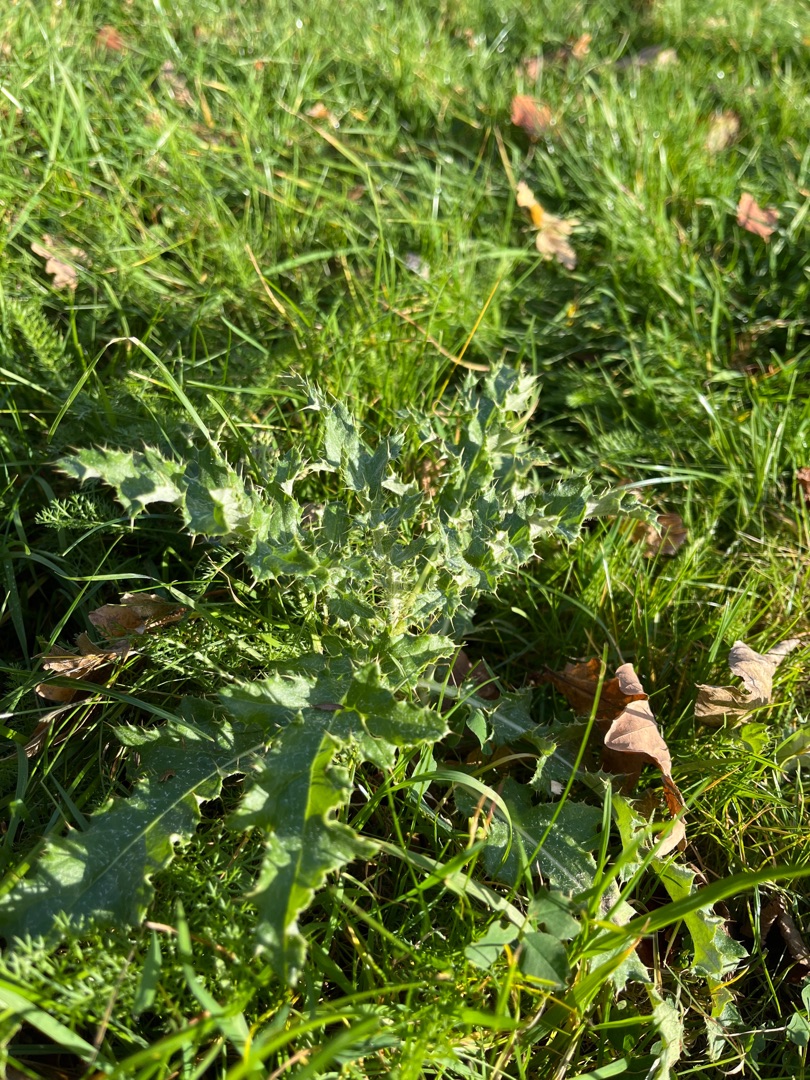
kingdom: Plantae
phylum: Tracheophyta
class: Magnoliopsida
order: Asterales
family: Asteraceae
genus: Cirsium
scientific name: Cirsium arvense
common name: Ager-tidsel
